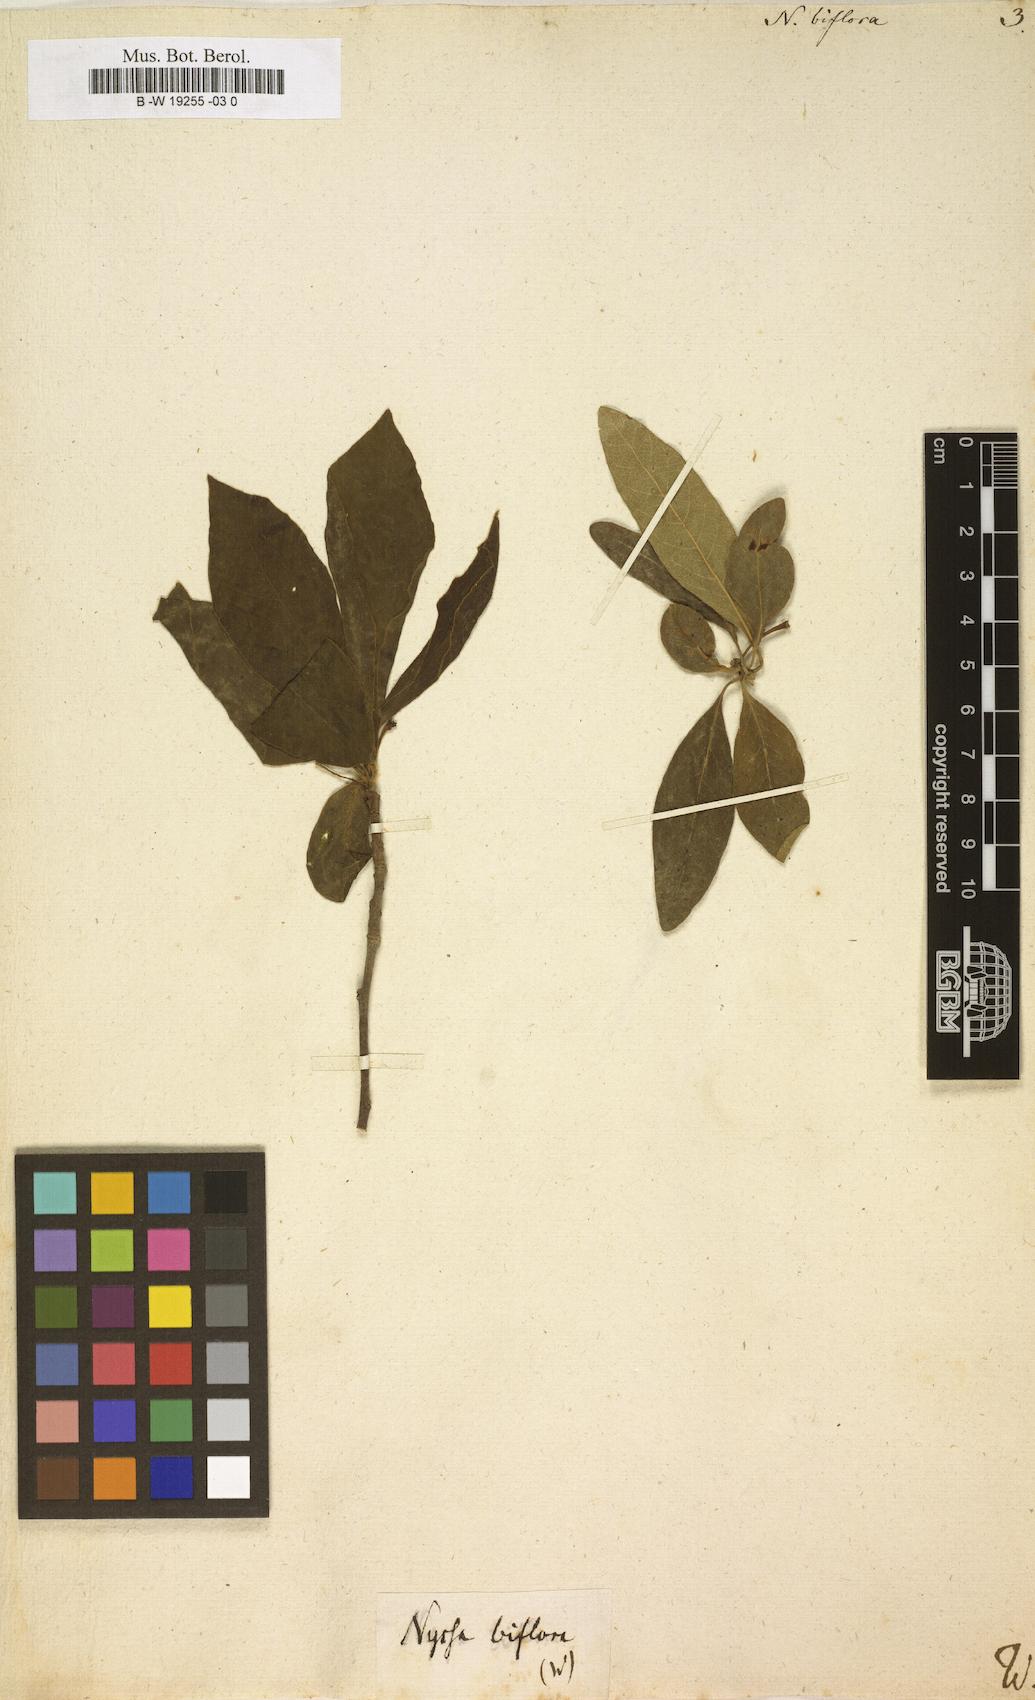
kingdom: Plantae
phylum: Tracheophyta
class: Magnoliopsida
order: Cornales
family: Nyssaceae
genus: Nyssa
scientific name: Nyssa biflora
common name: Swamp blackgum
